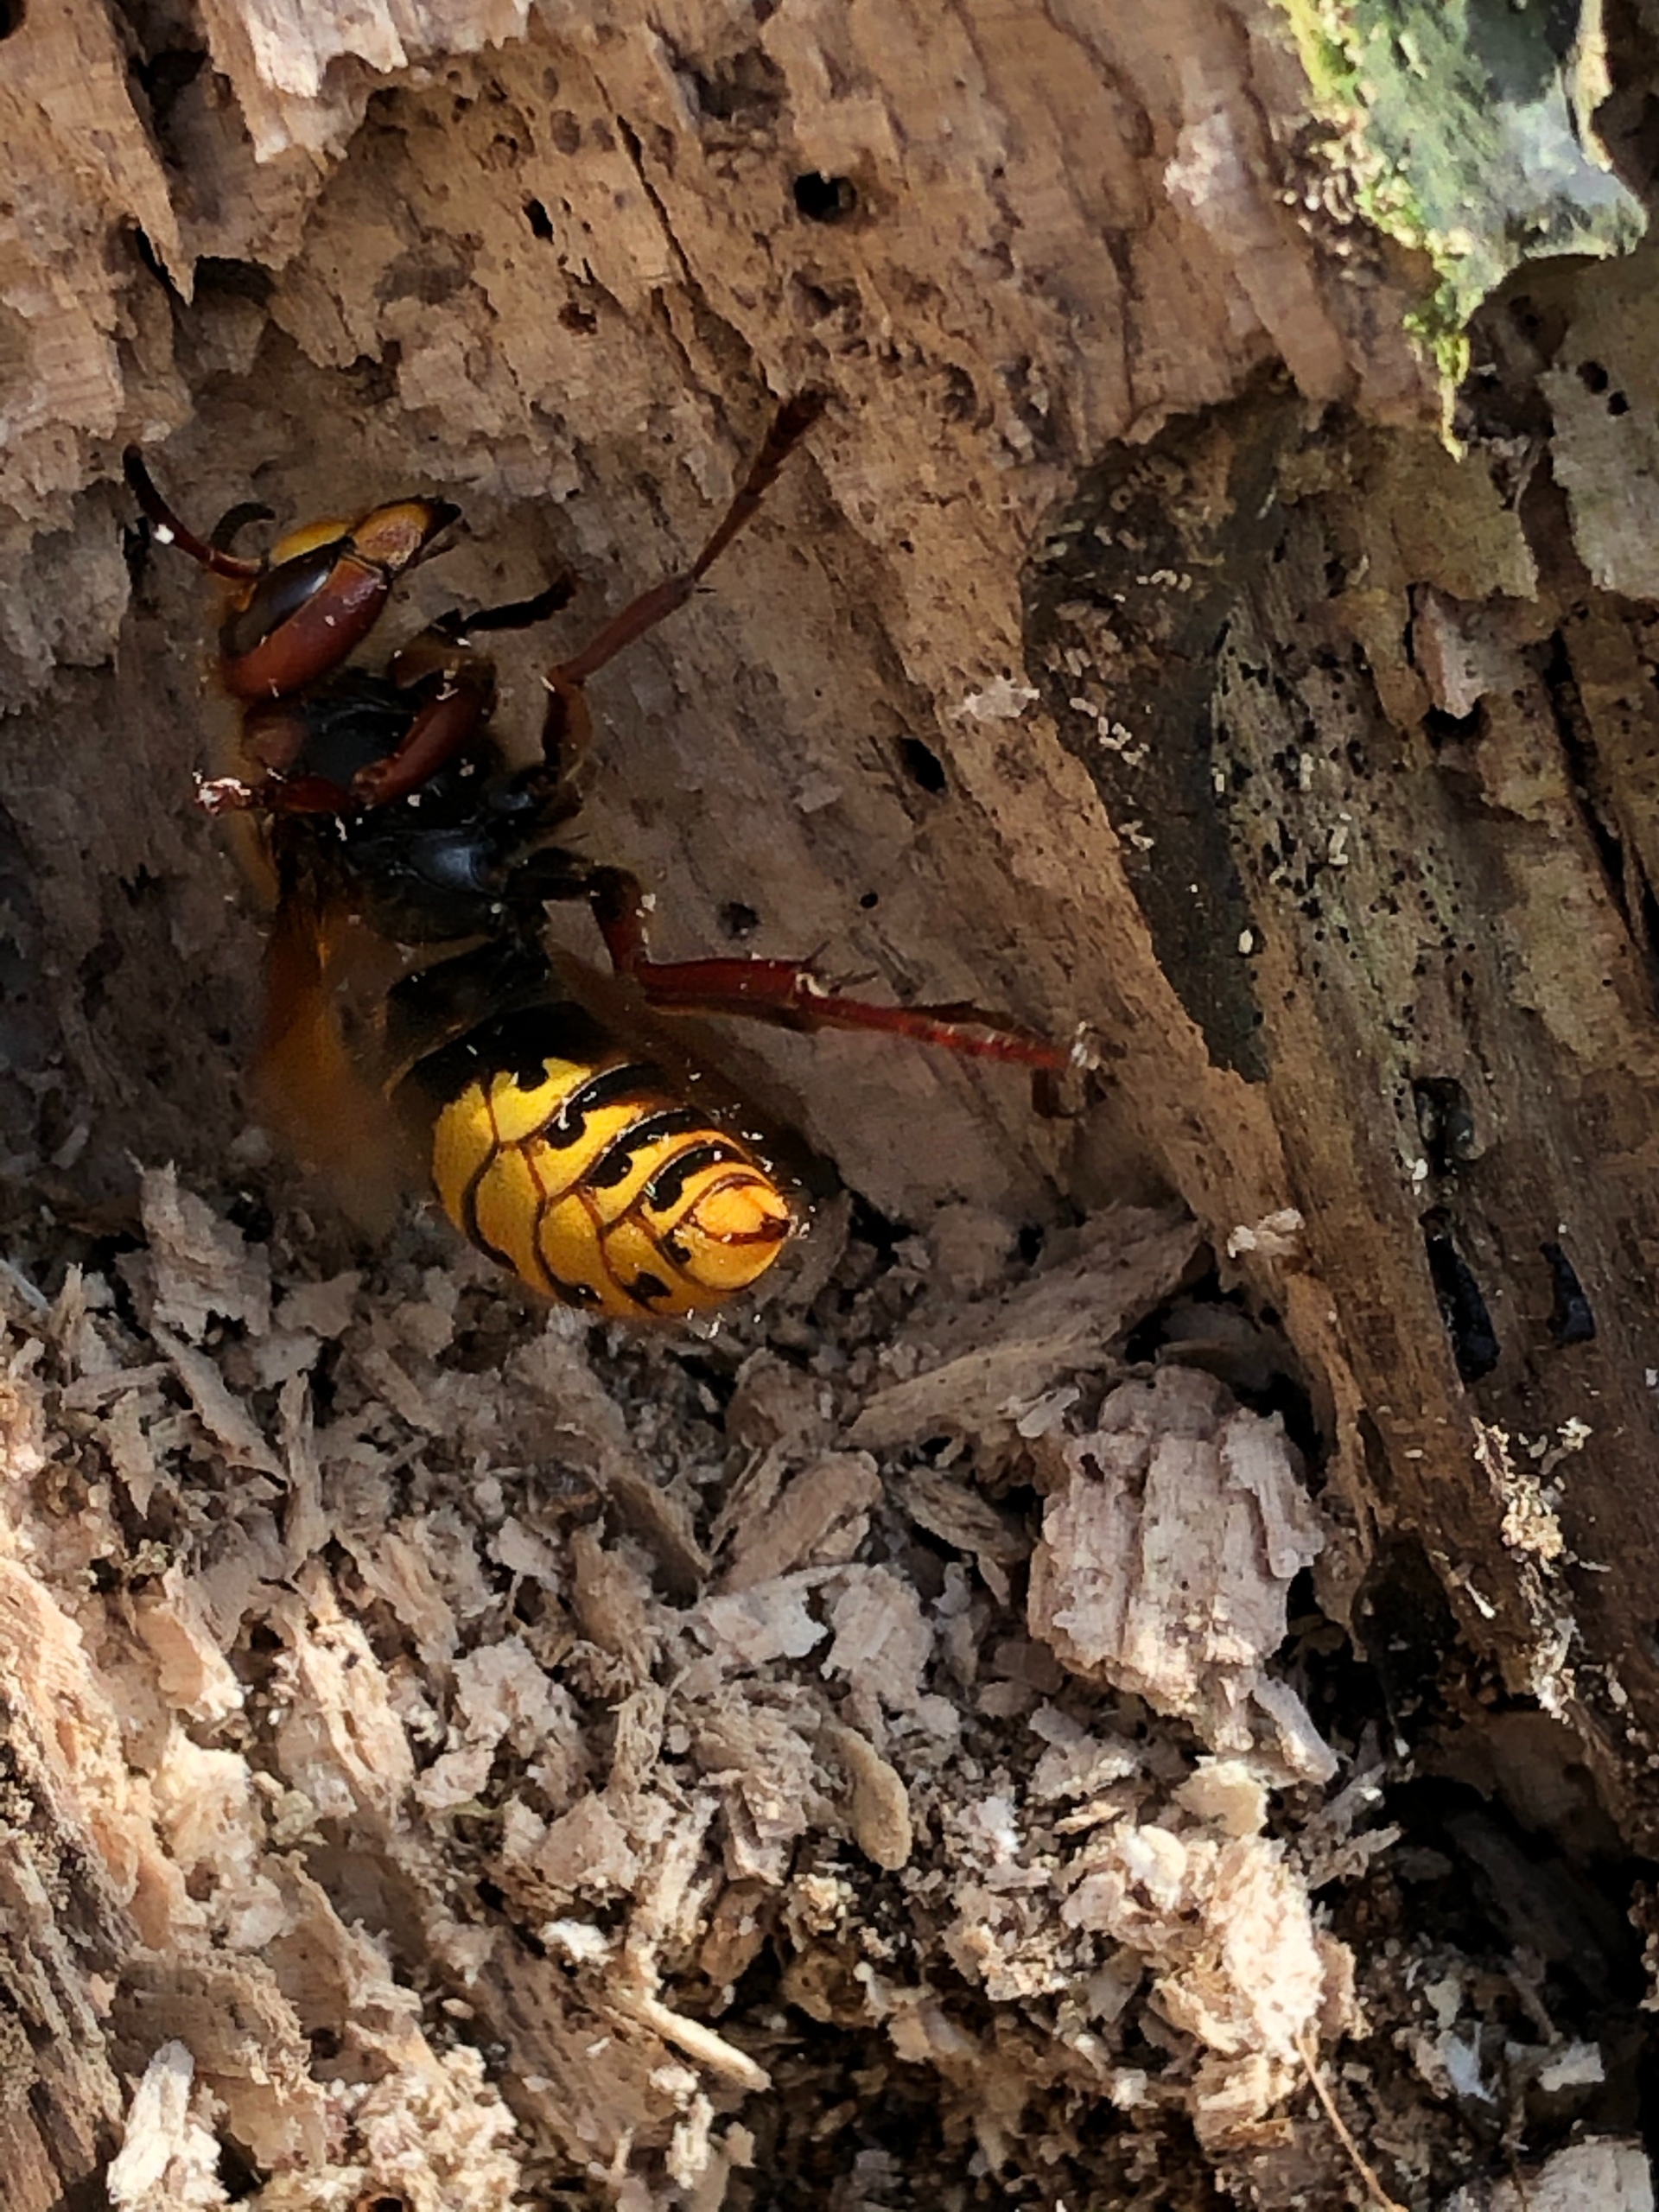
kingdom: Animalia
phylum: Arthropoda
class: Insecta
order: Hymenoptera
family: Vespidae
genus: Vespa
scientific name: Vespa crabro
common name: Stor gedehams
